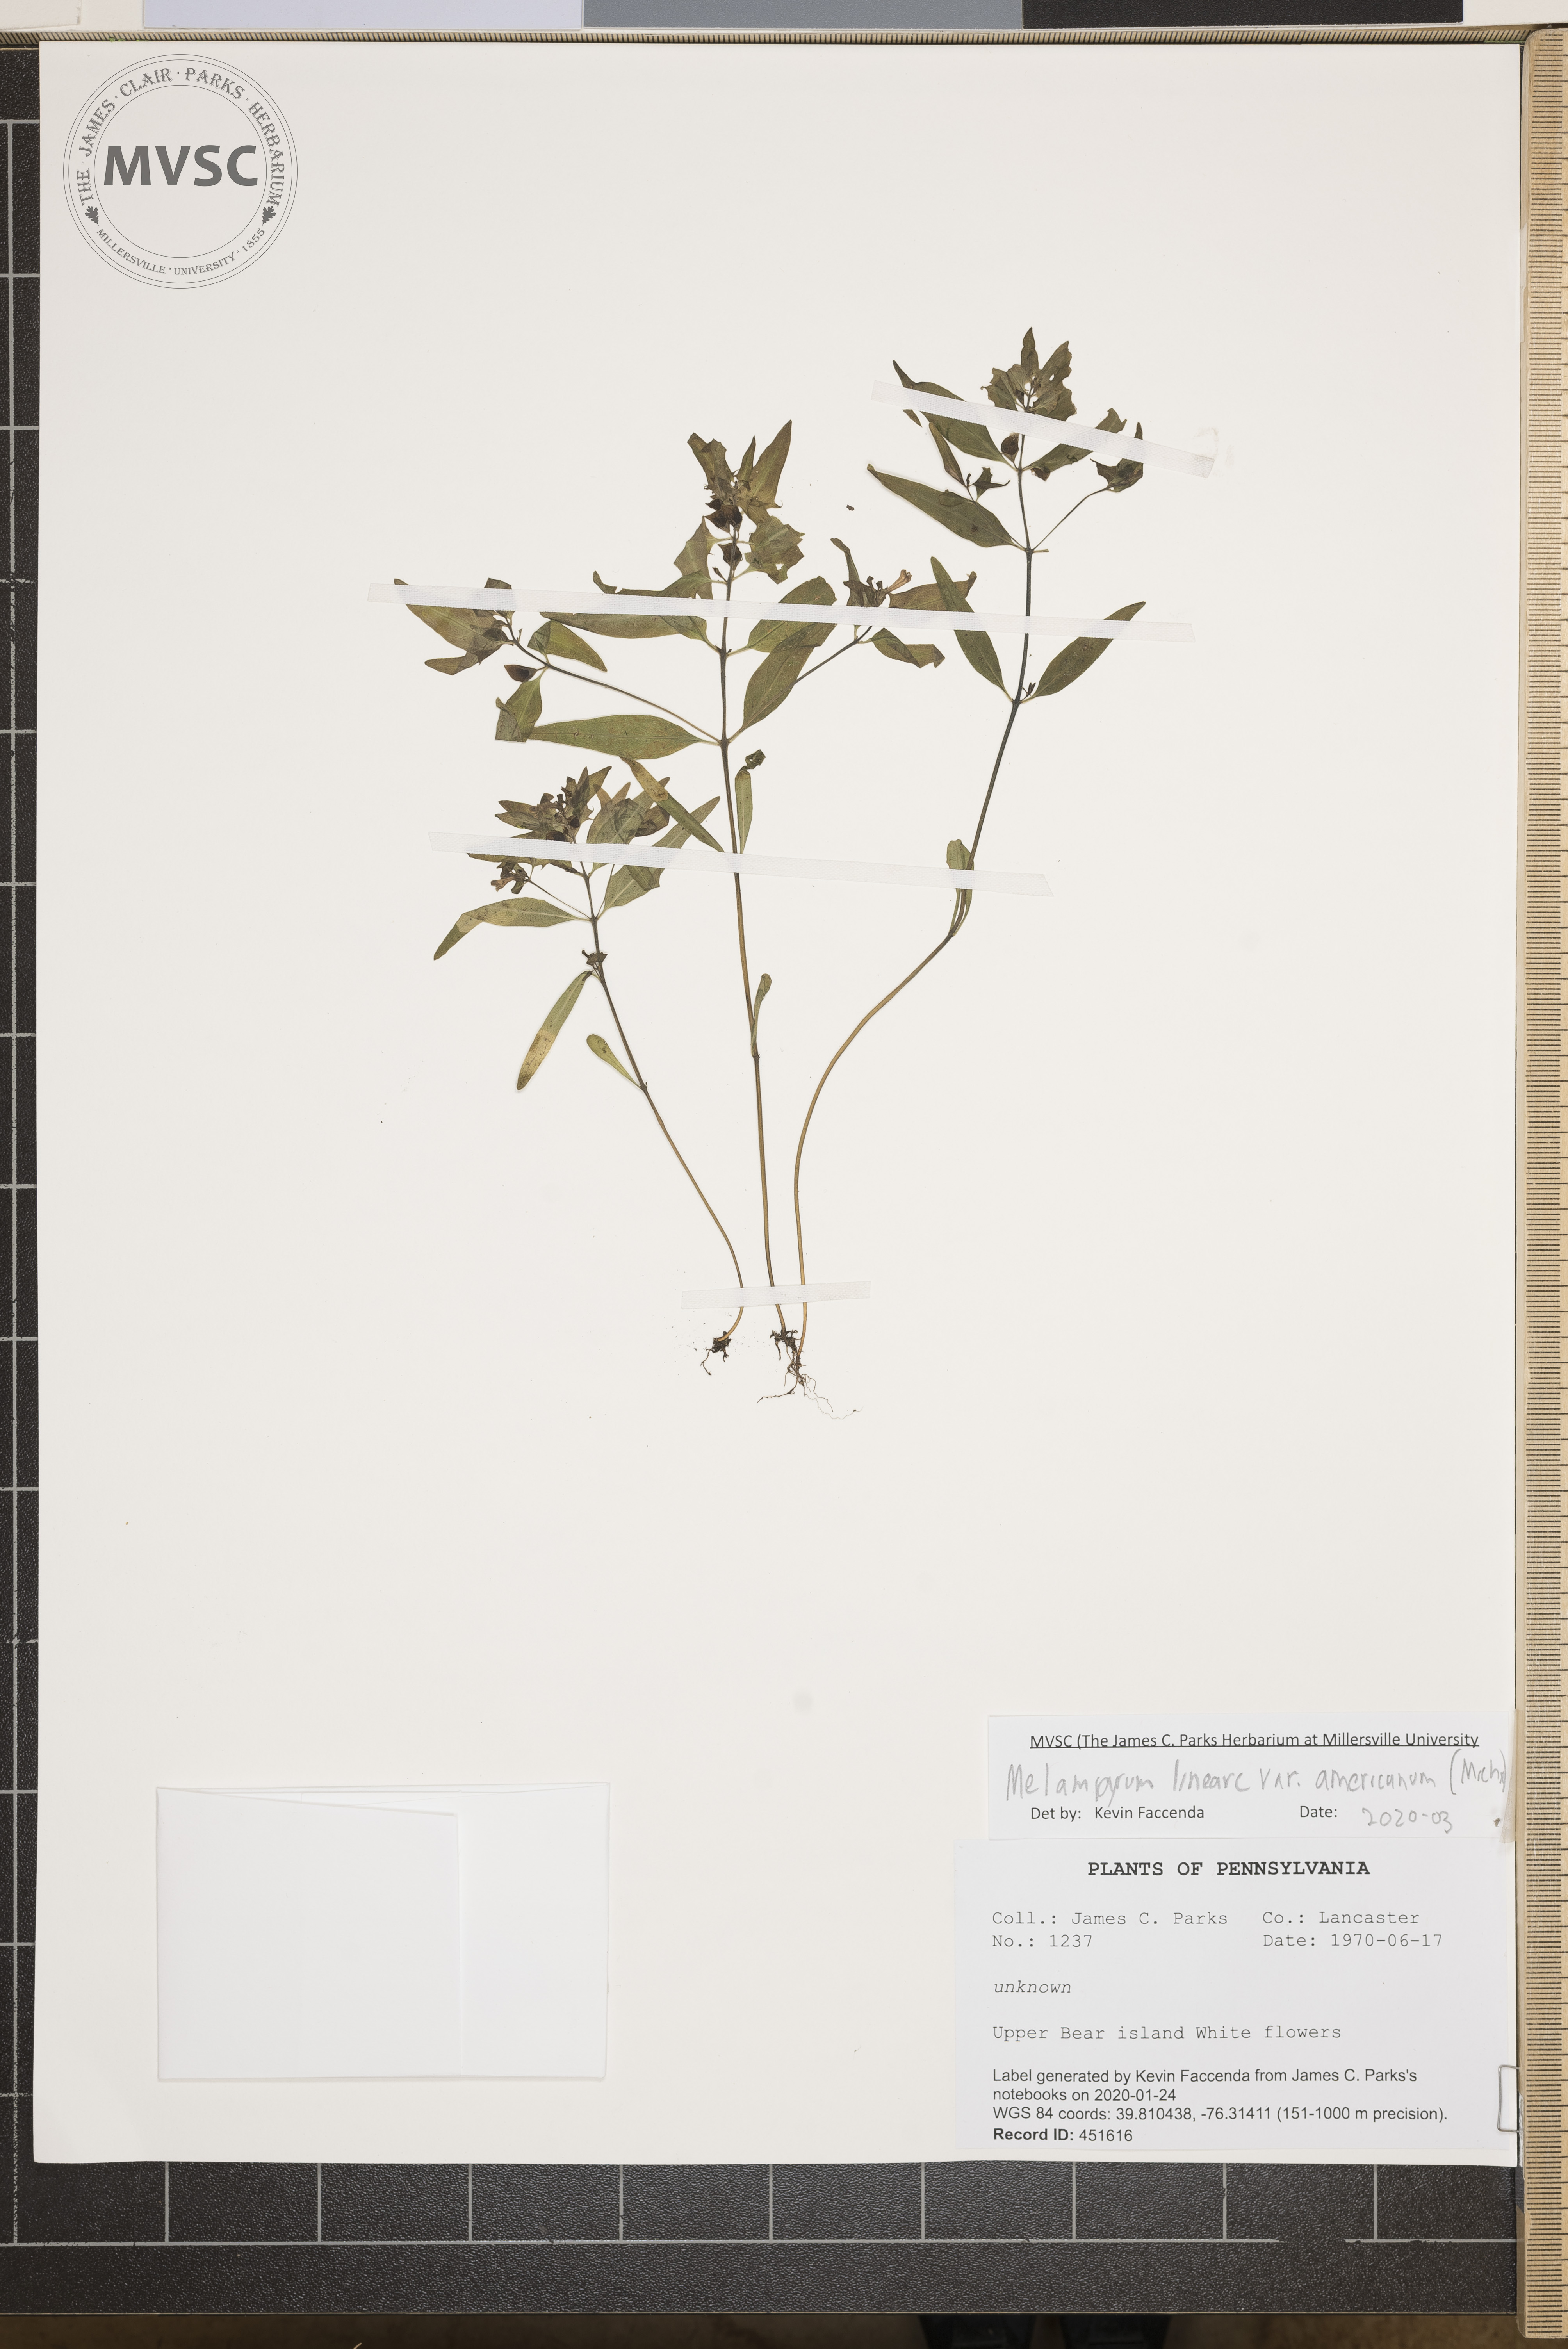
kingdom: Plantae
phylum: Tracheophyta
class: Magnoliopsida
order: Lamiales
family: Orobanchaceae
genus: Melampyrum
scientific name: Melampyrum lineare
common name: American cow-wheat
